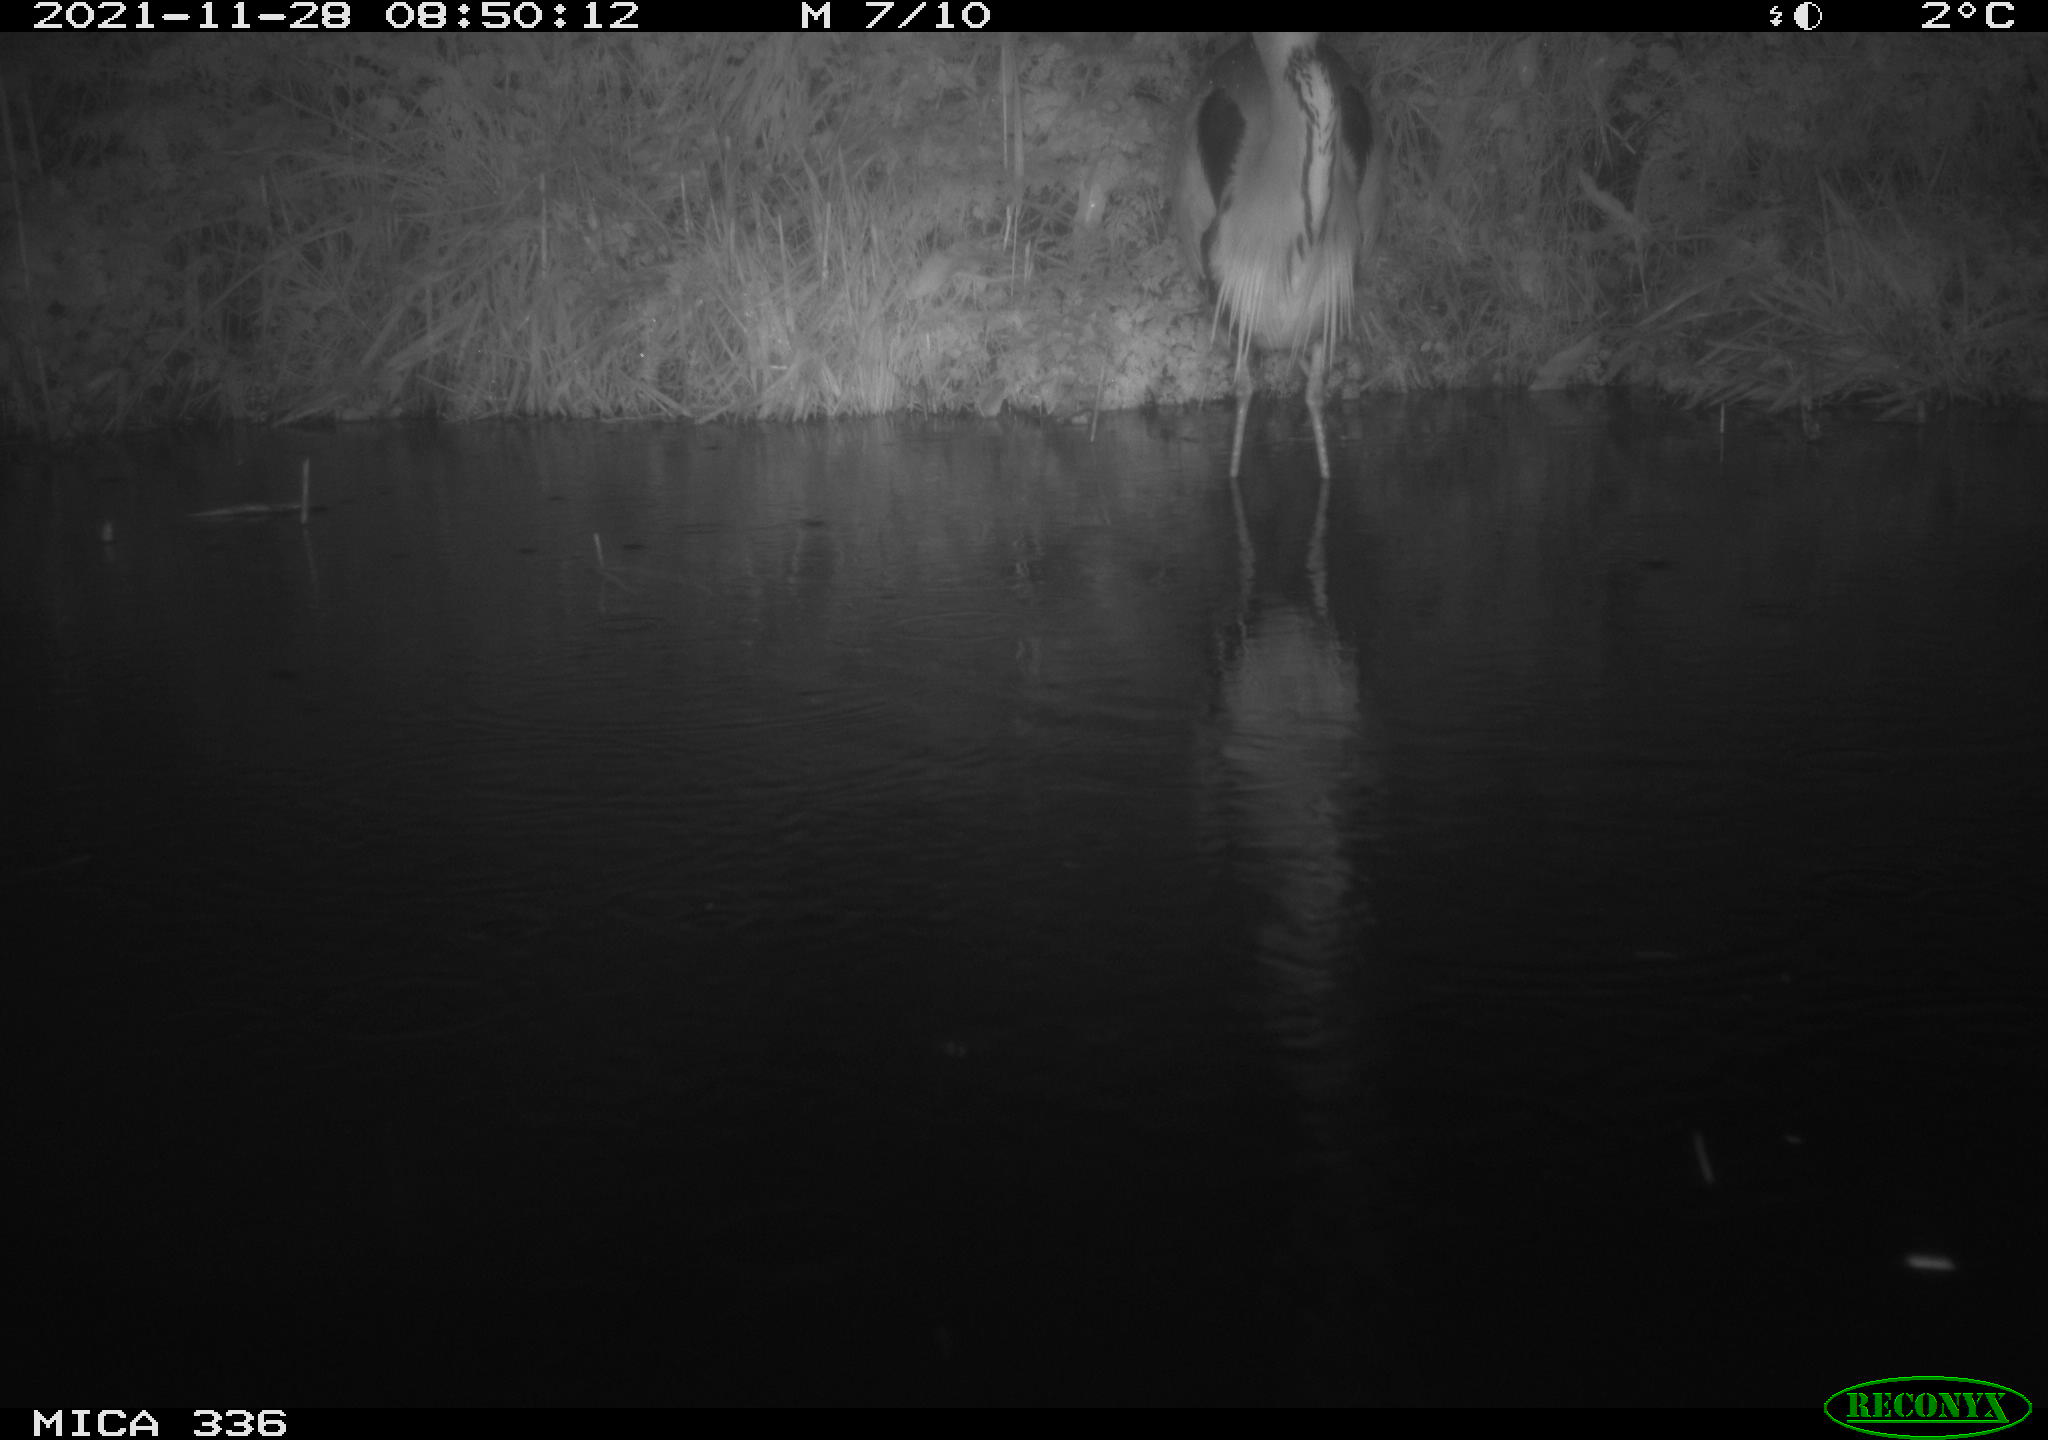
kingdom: Animalia
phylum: Chordata
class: Aves
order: Pelecaniformes
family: Ardeidae
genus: Ardea
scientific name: Ardea cinerea
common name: Grey heron
